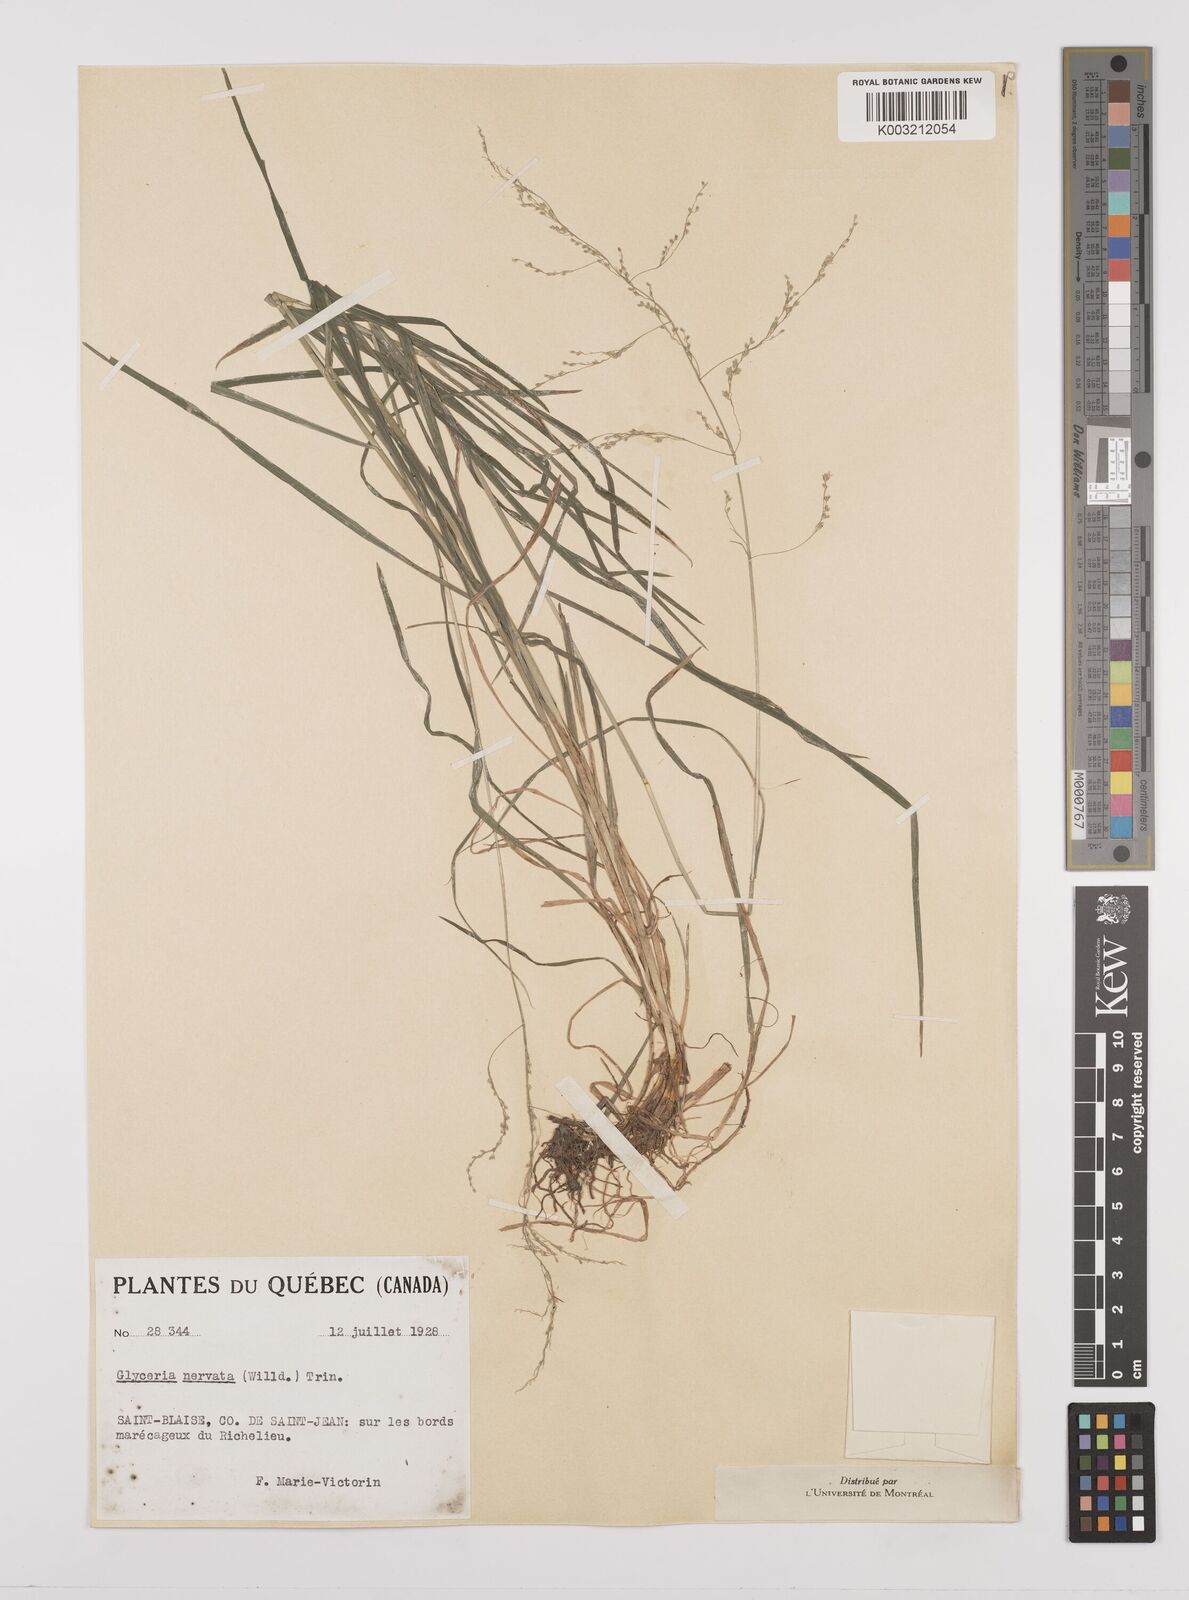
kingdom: Plantae
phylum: Tracheophyta
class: Liliopsida
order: Poales
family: Poaceae
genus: Glyceria
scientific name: Glyceria striata
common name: Fowl manna grass
